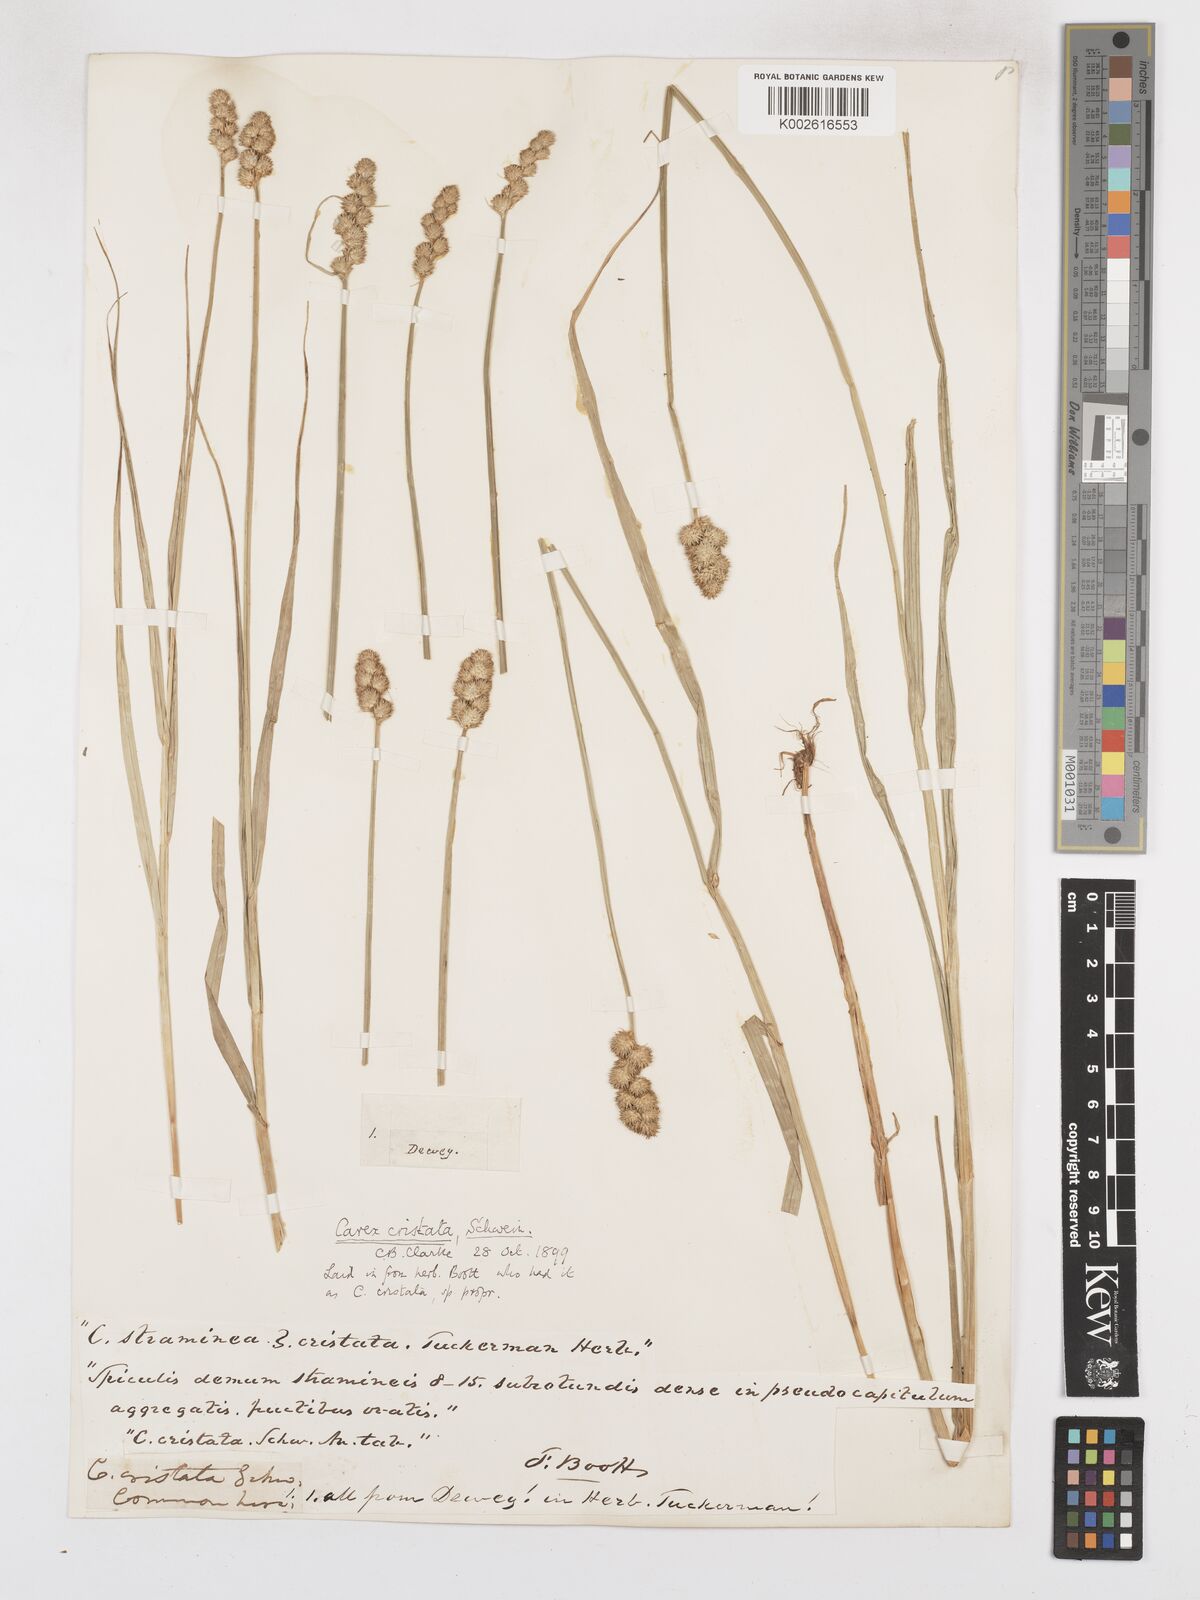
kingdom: Plantae
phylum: Tracheophyta
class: Liliopsida
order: Poales
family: Cyperaceae
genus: Carex
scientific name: Carex cristatella
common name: Crested oval sedge
